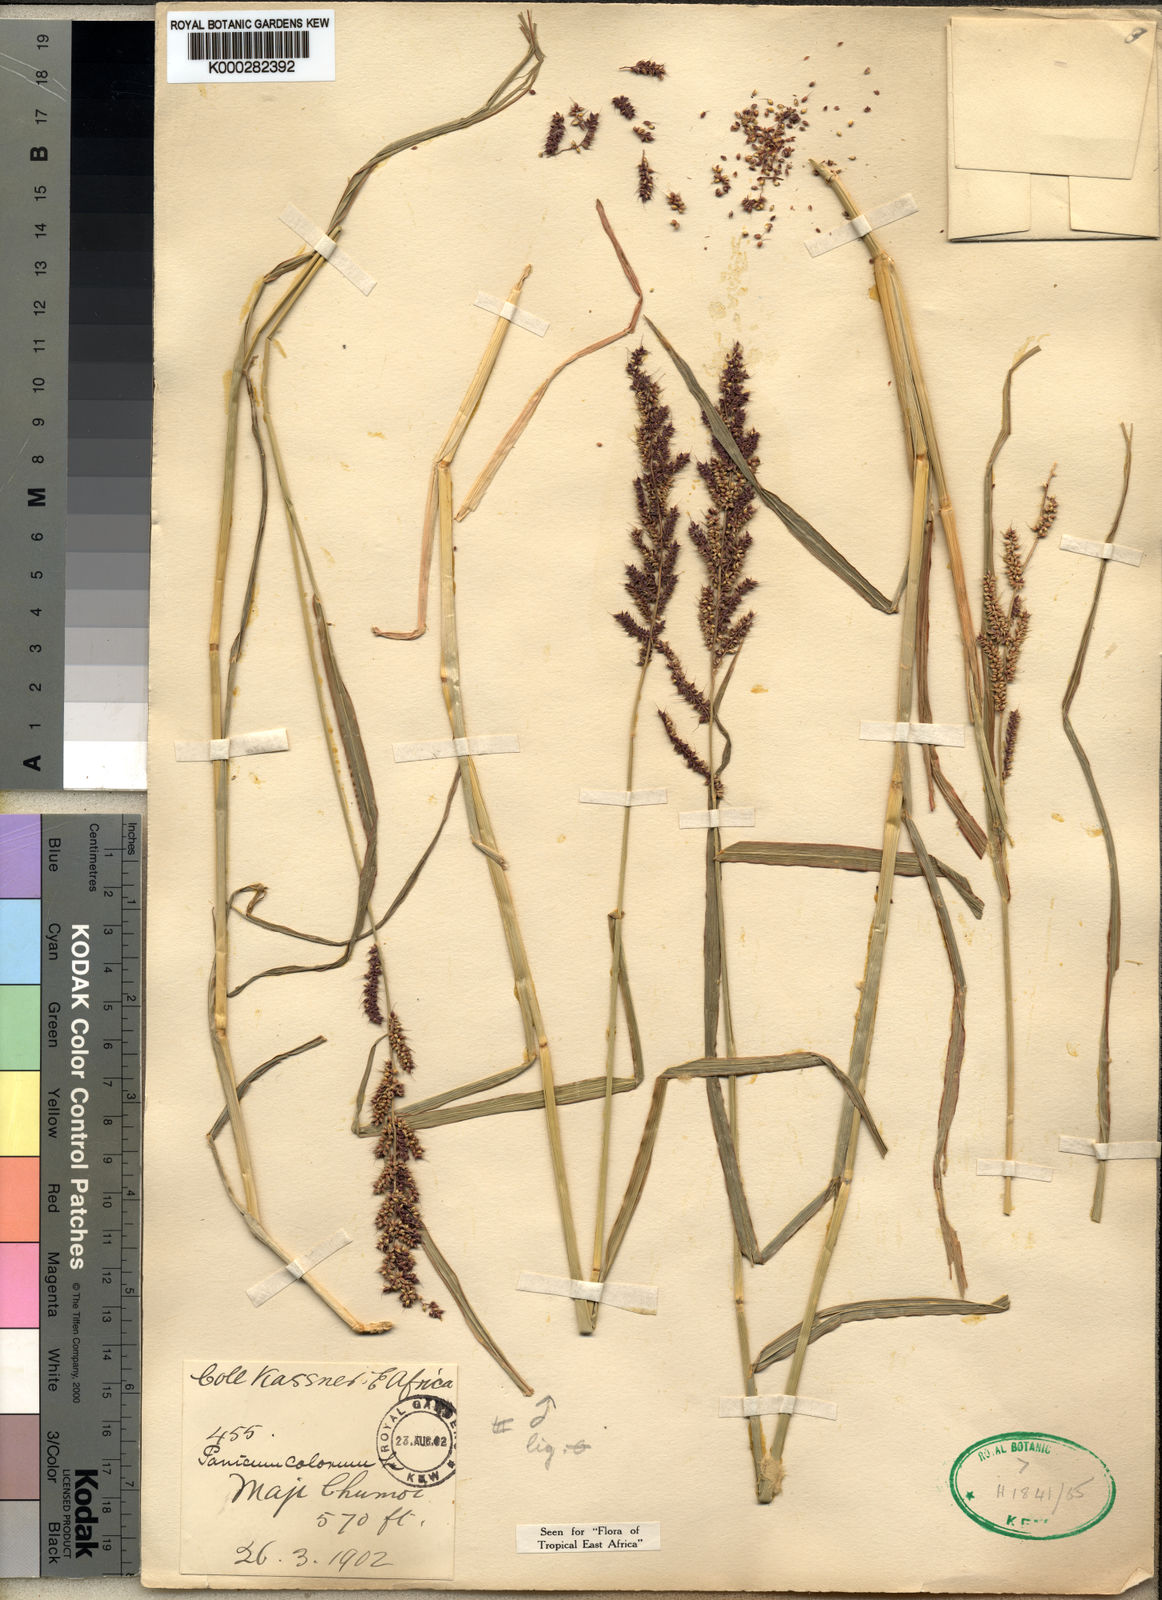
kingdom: Plantae
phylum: Tracheophyta
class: Liliopsida
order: Poales
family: Poaceae
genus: Echinochloa
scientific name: Echinochloa haploclada
